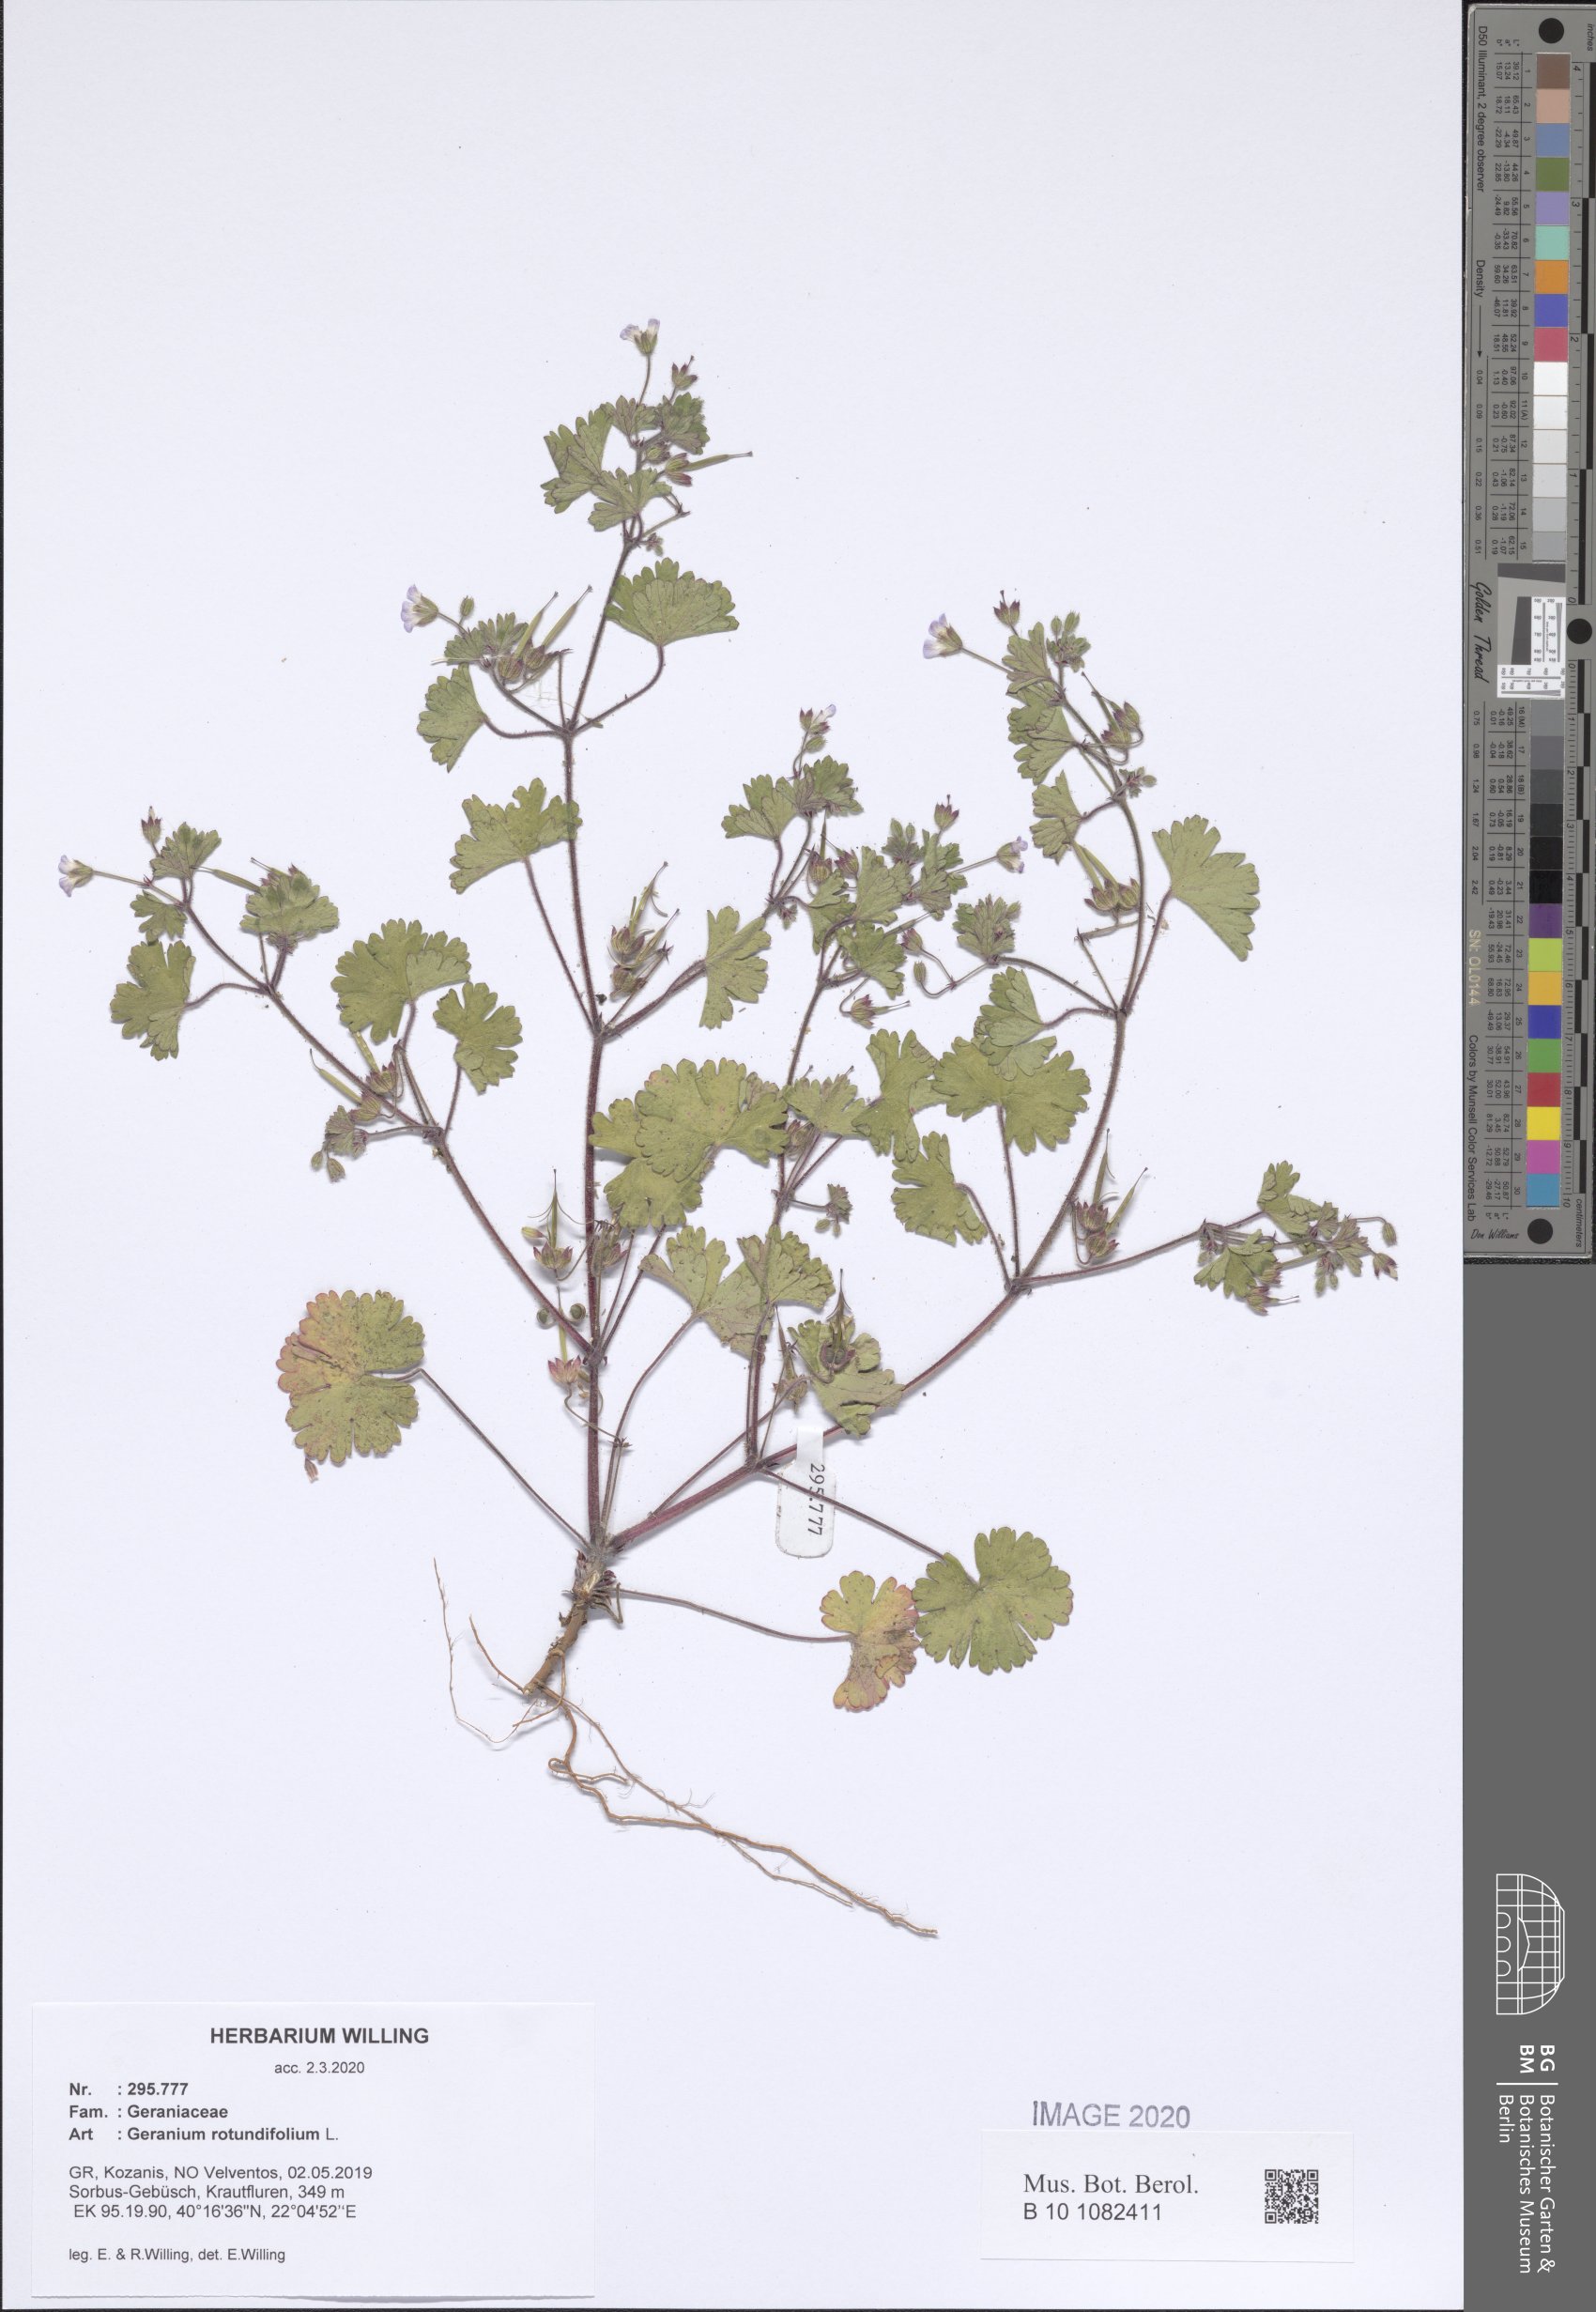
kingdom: Plantae
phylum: Tracheophyta
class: Magnoliopsida
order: Geraniales
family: Geraniaceae
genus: Geranium
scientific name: Geranium rotundifolium
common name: Round-leaved crane's-bill
